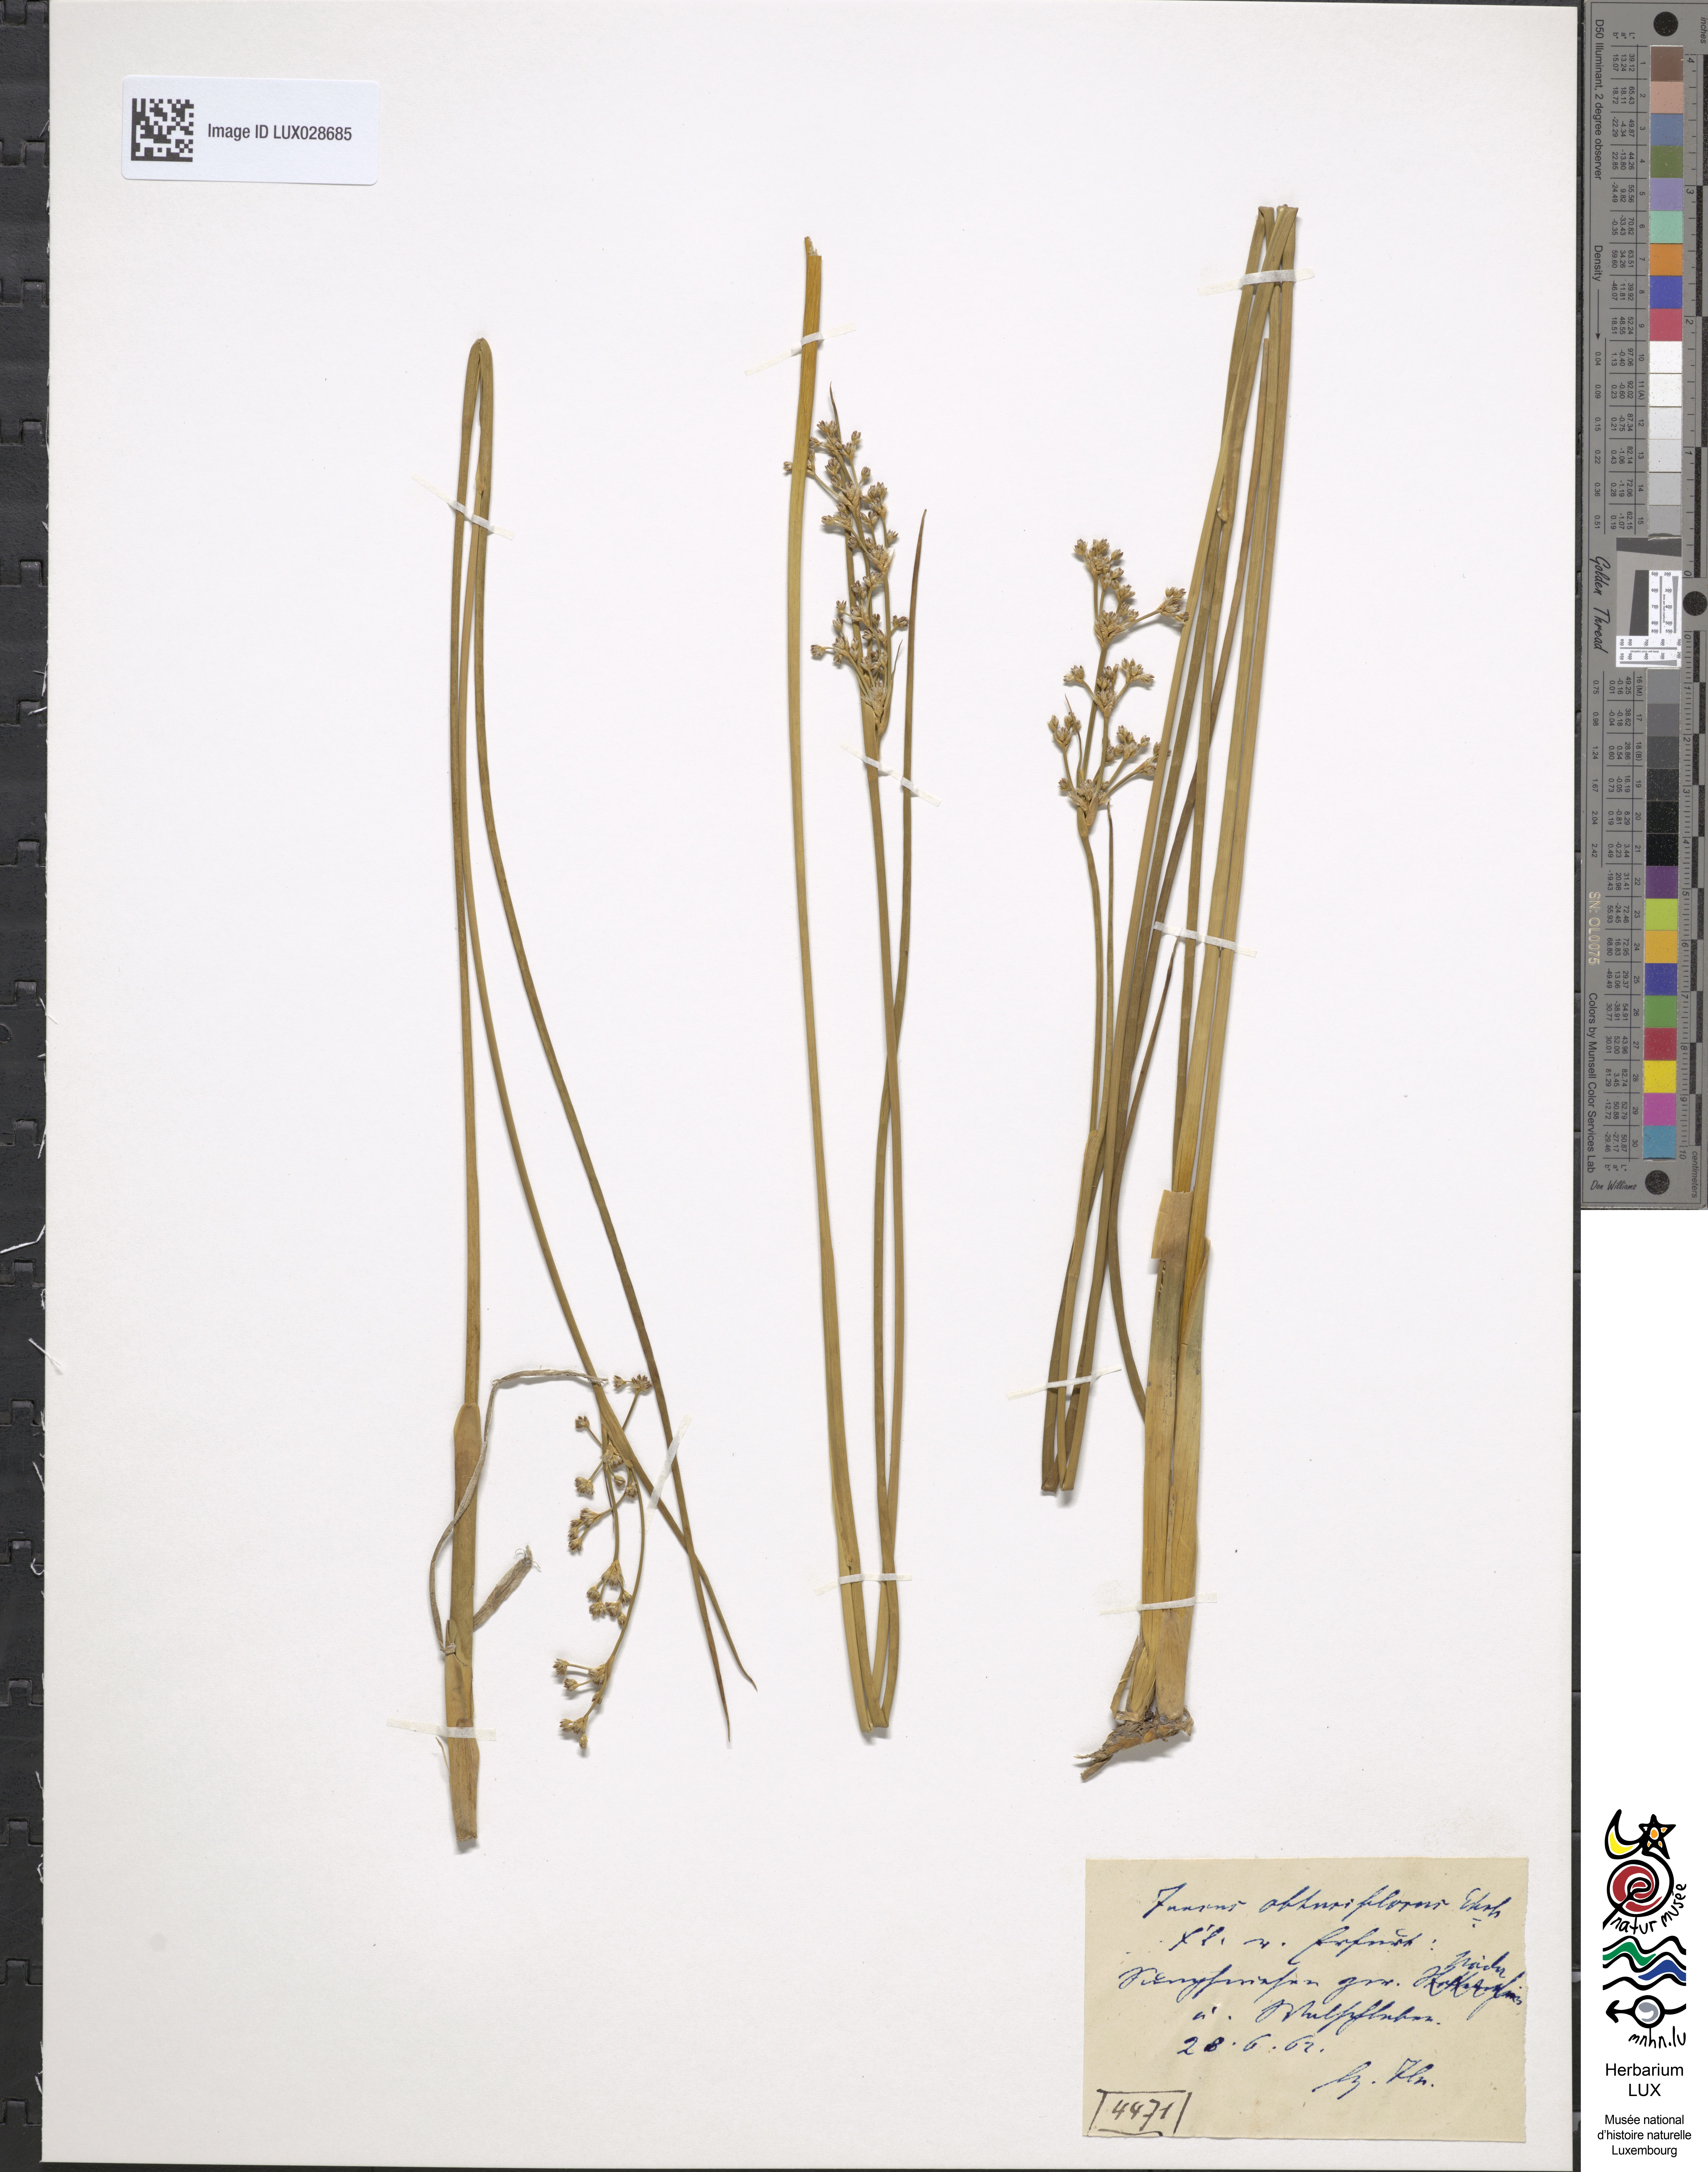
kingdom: Plantae
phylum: Tracheophyta
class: Liliopsida
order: Poales
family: Juncaceae
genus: Juncus
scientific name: Juncus subnodulosus
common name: Blunt-flowered rush
